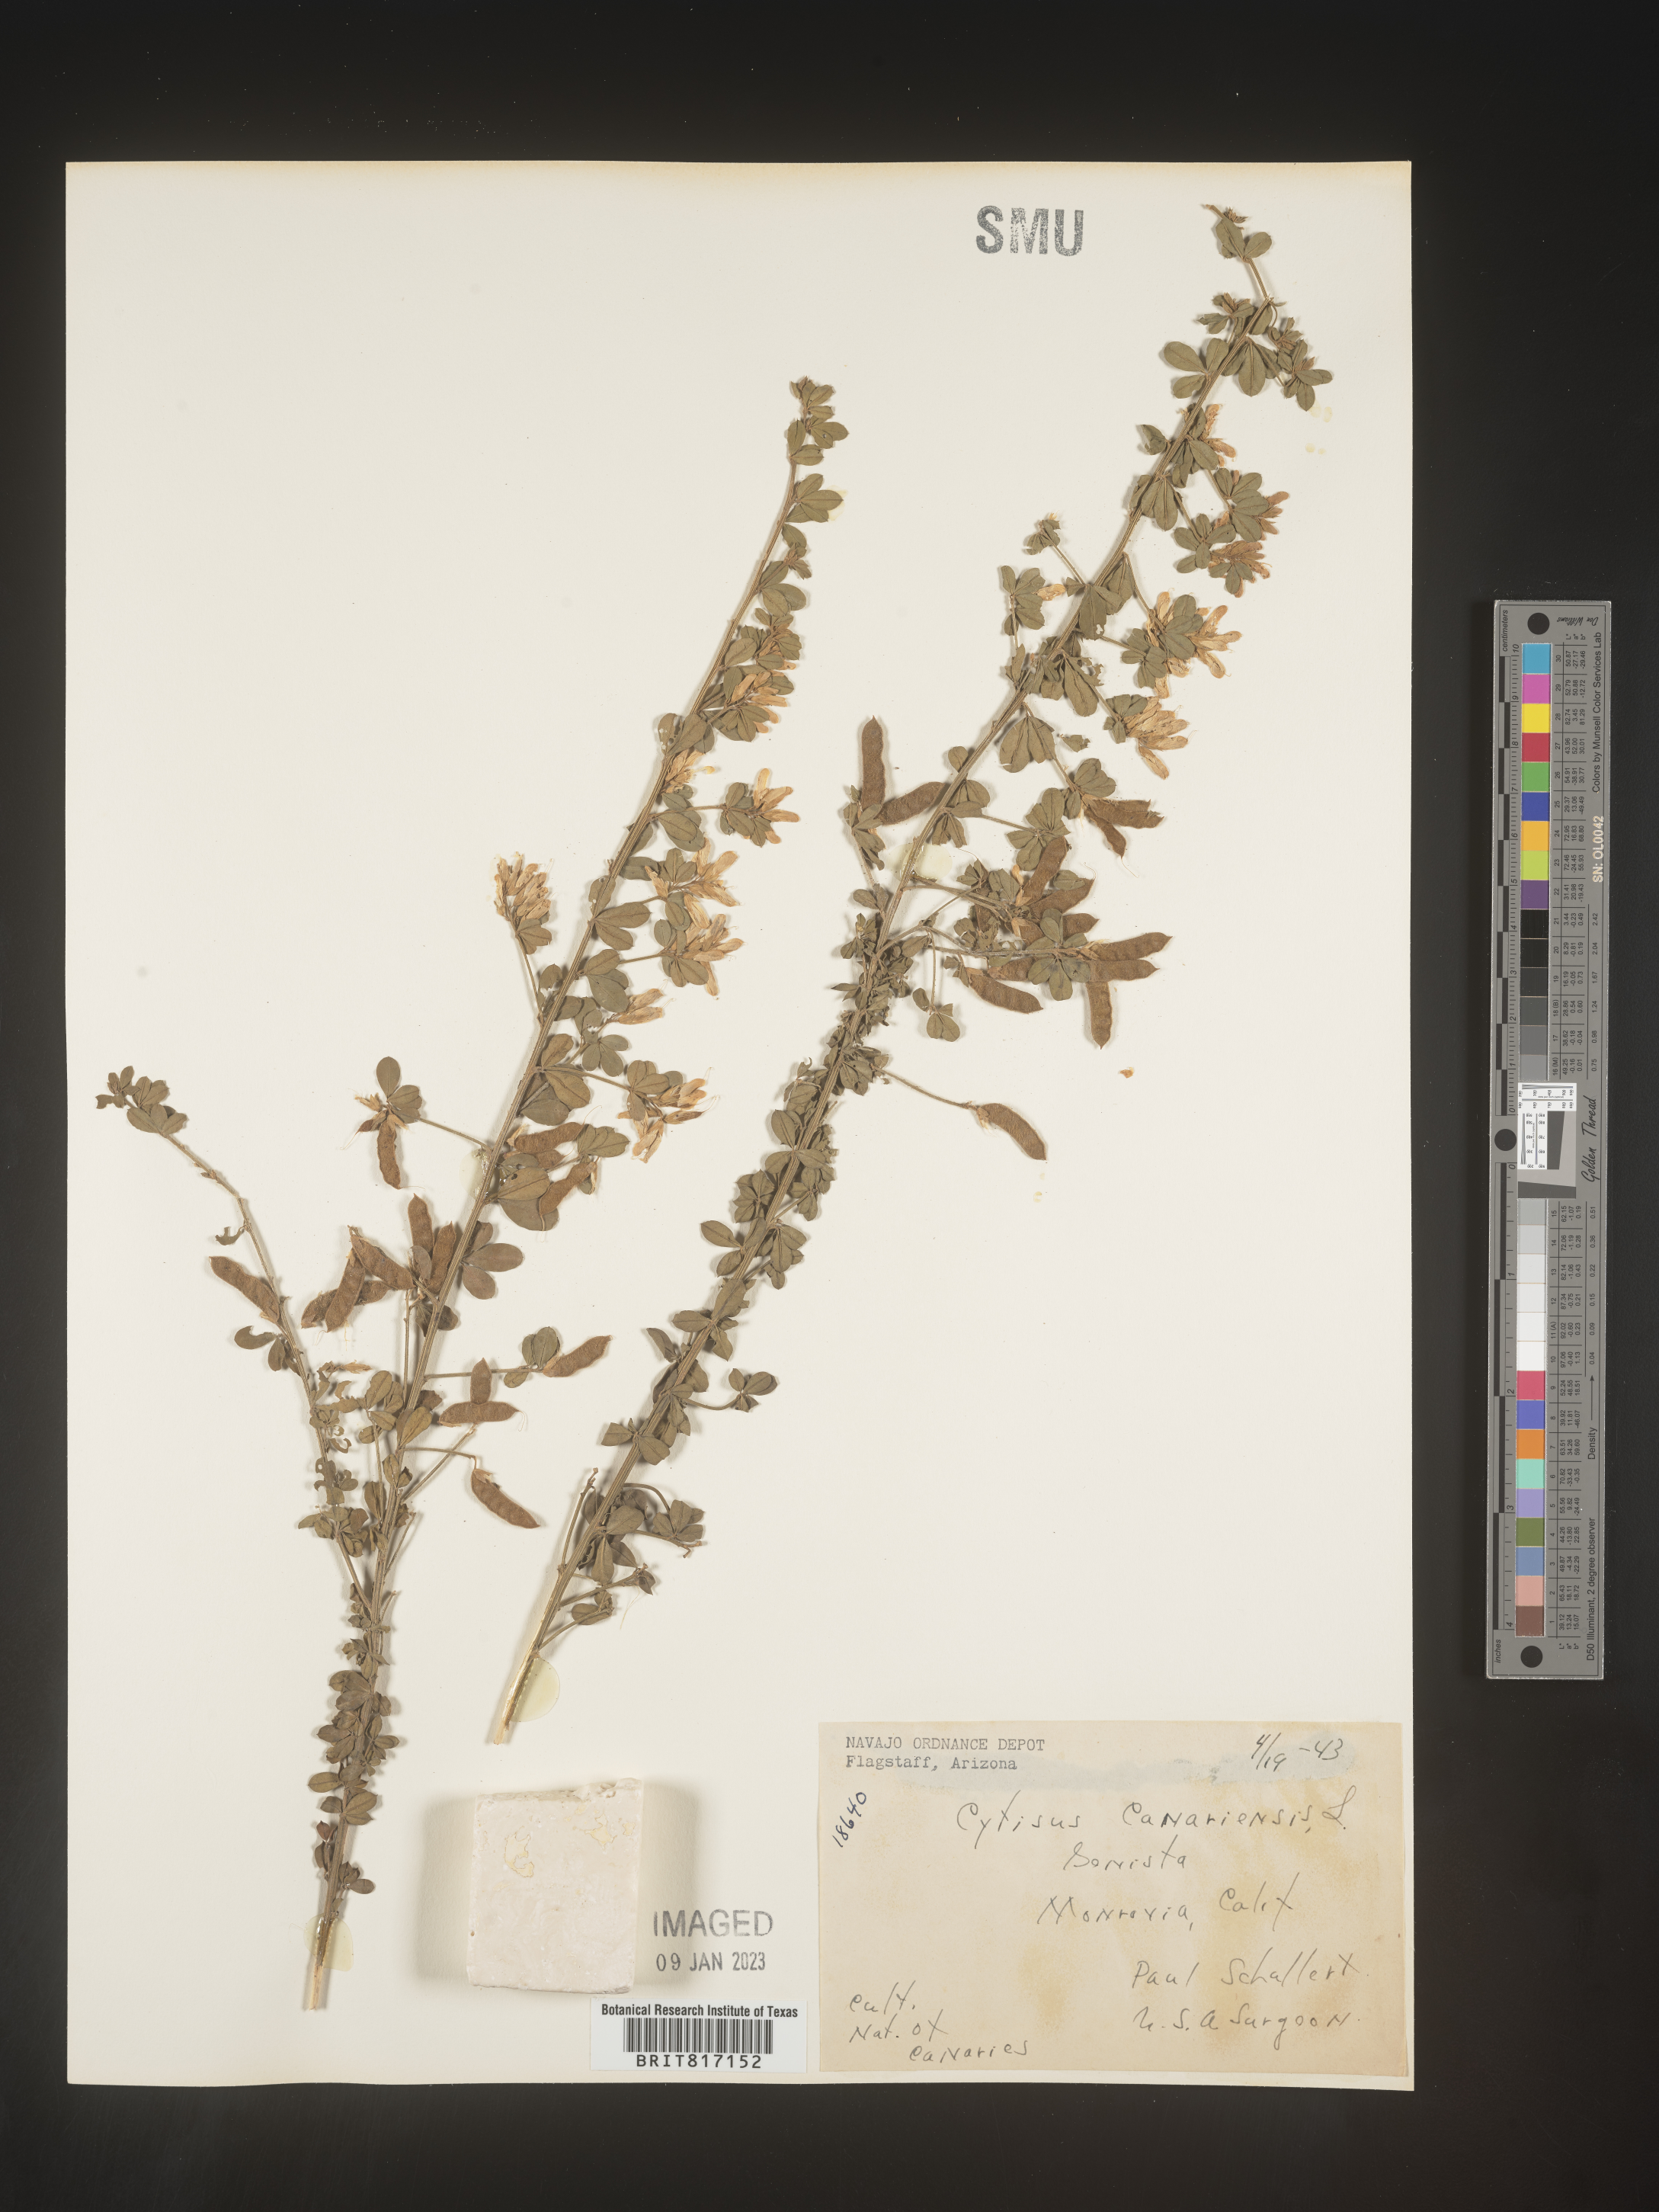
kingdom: Plantae
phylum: Tracheophyta
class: Magnoliopsida
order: Fabales
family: Fabaceae
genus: Cytisus
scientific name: Cytisus
